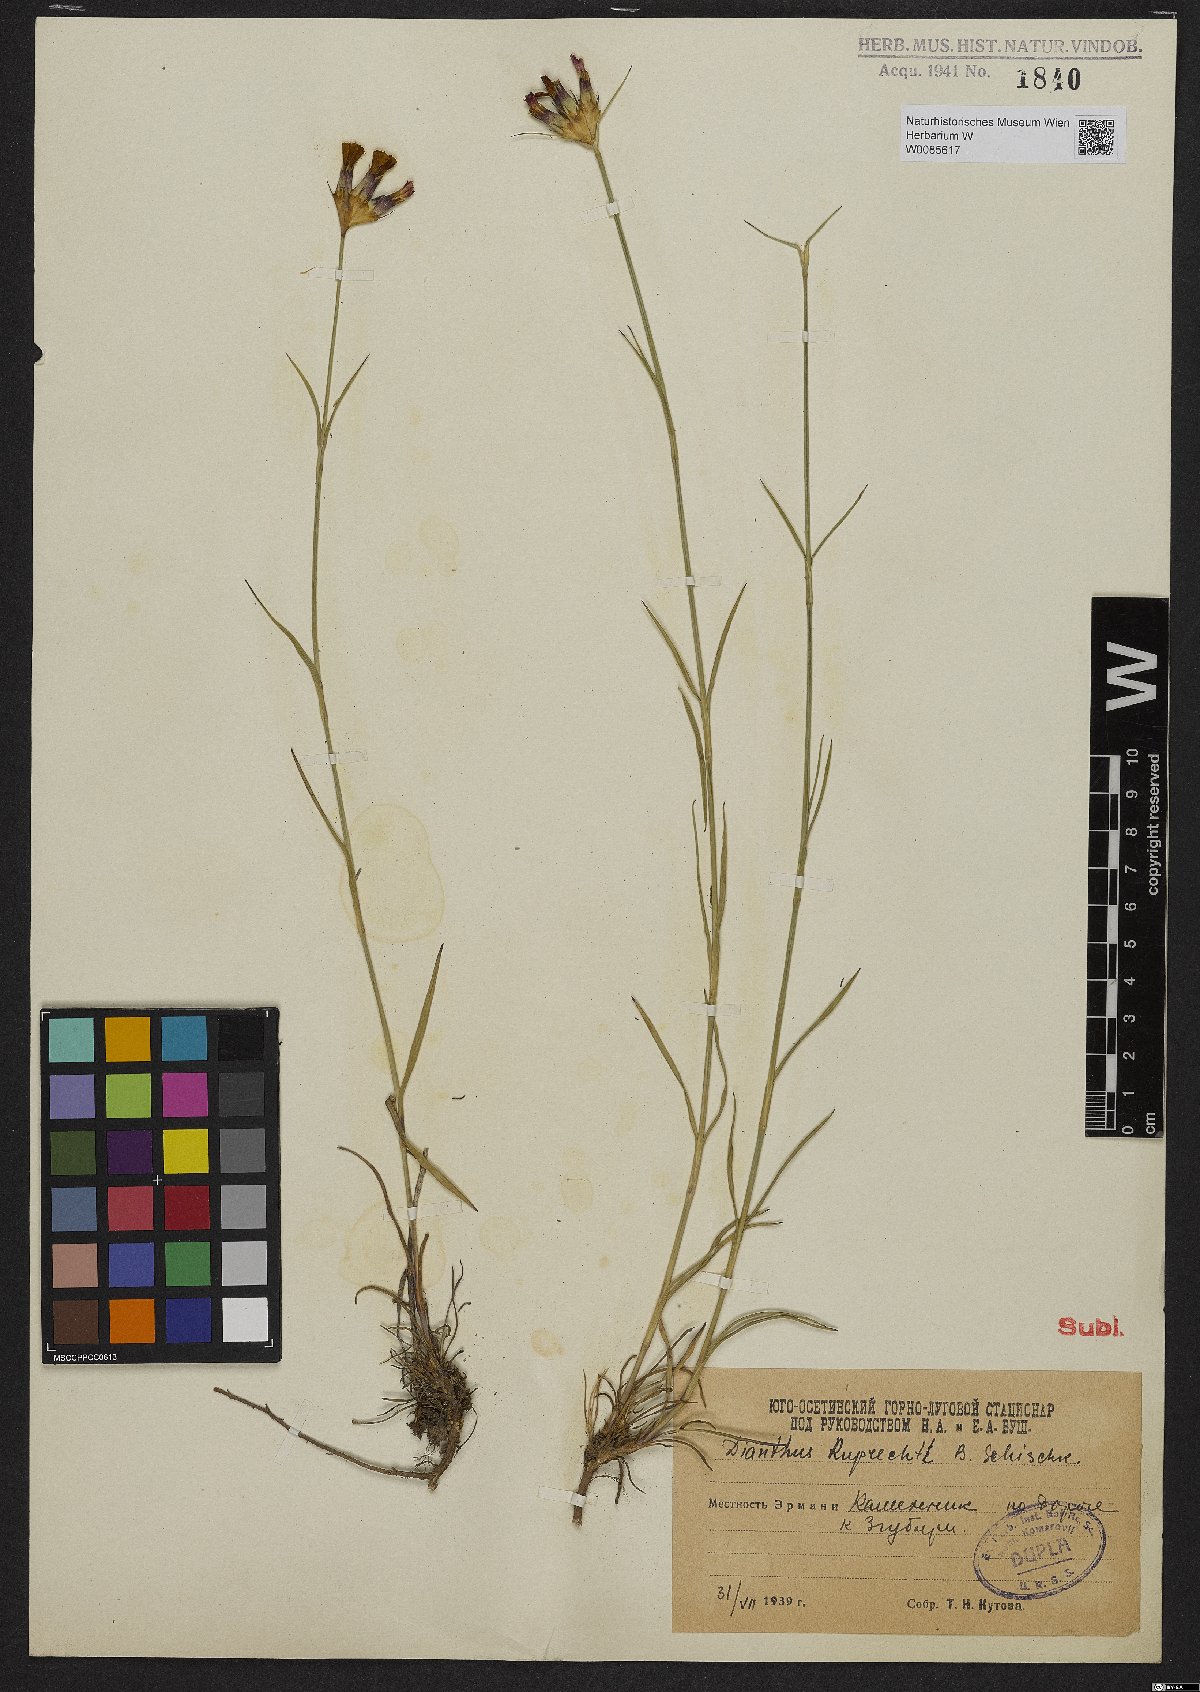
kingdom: Plantae
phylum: Tracheophyta
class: Magnoliopsida
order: Caryophyllales
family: Caryophyllaceae
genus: Dianthus
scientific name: Dianthus ruprechtii
